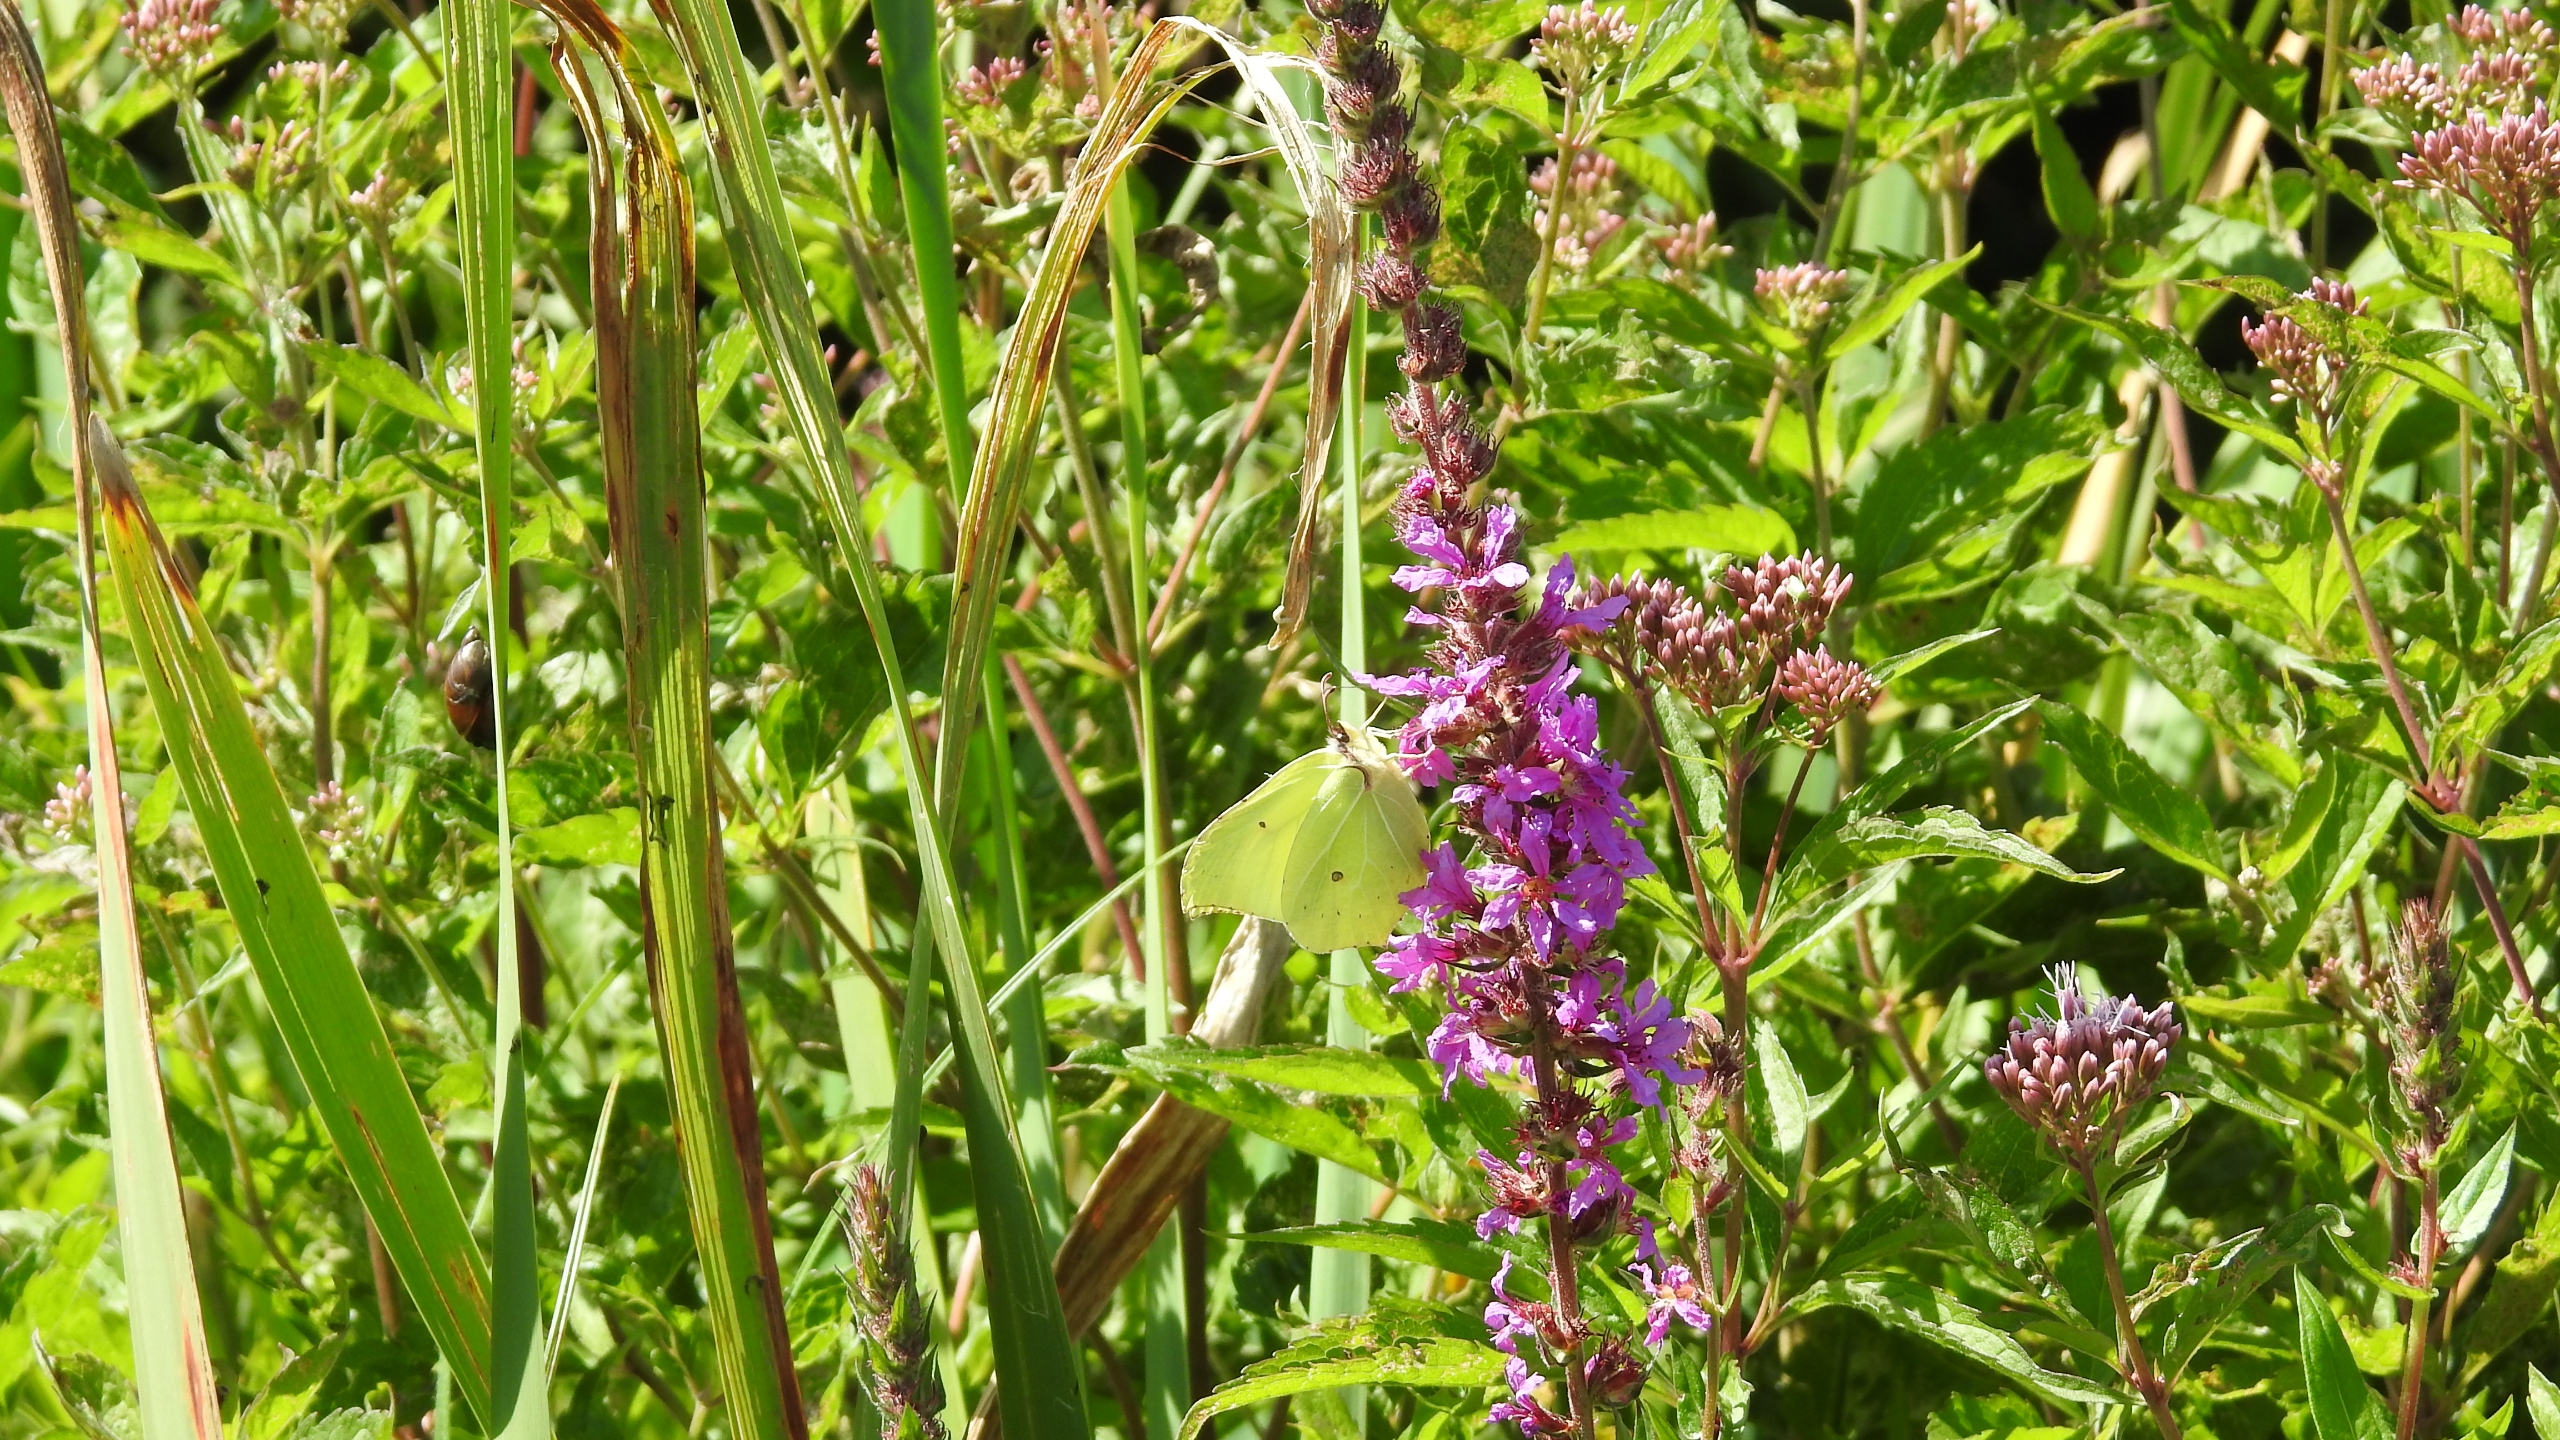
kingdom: Plantae
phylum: Tracheophyta
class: Magnoliopsida
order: Myrtales
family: Lythraceae
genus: Lythrum
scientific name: Lythrum salicaria
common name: Kattehale
